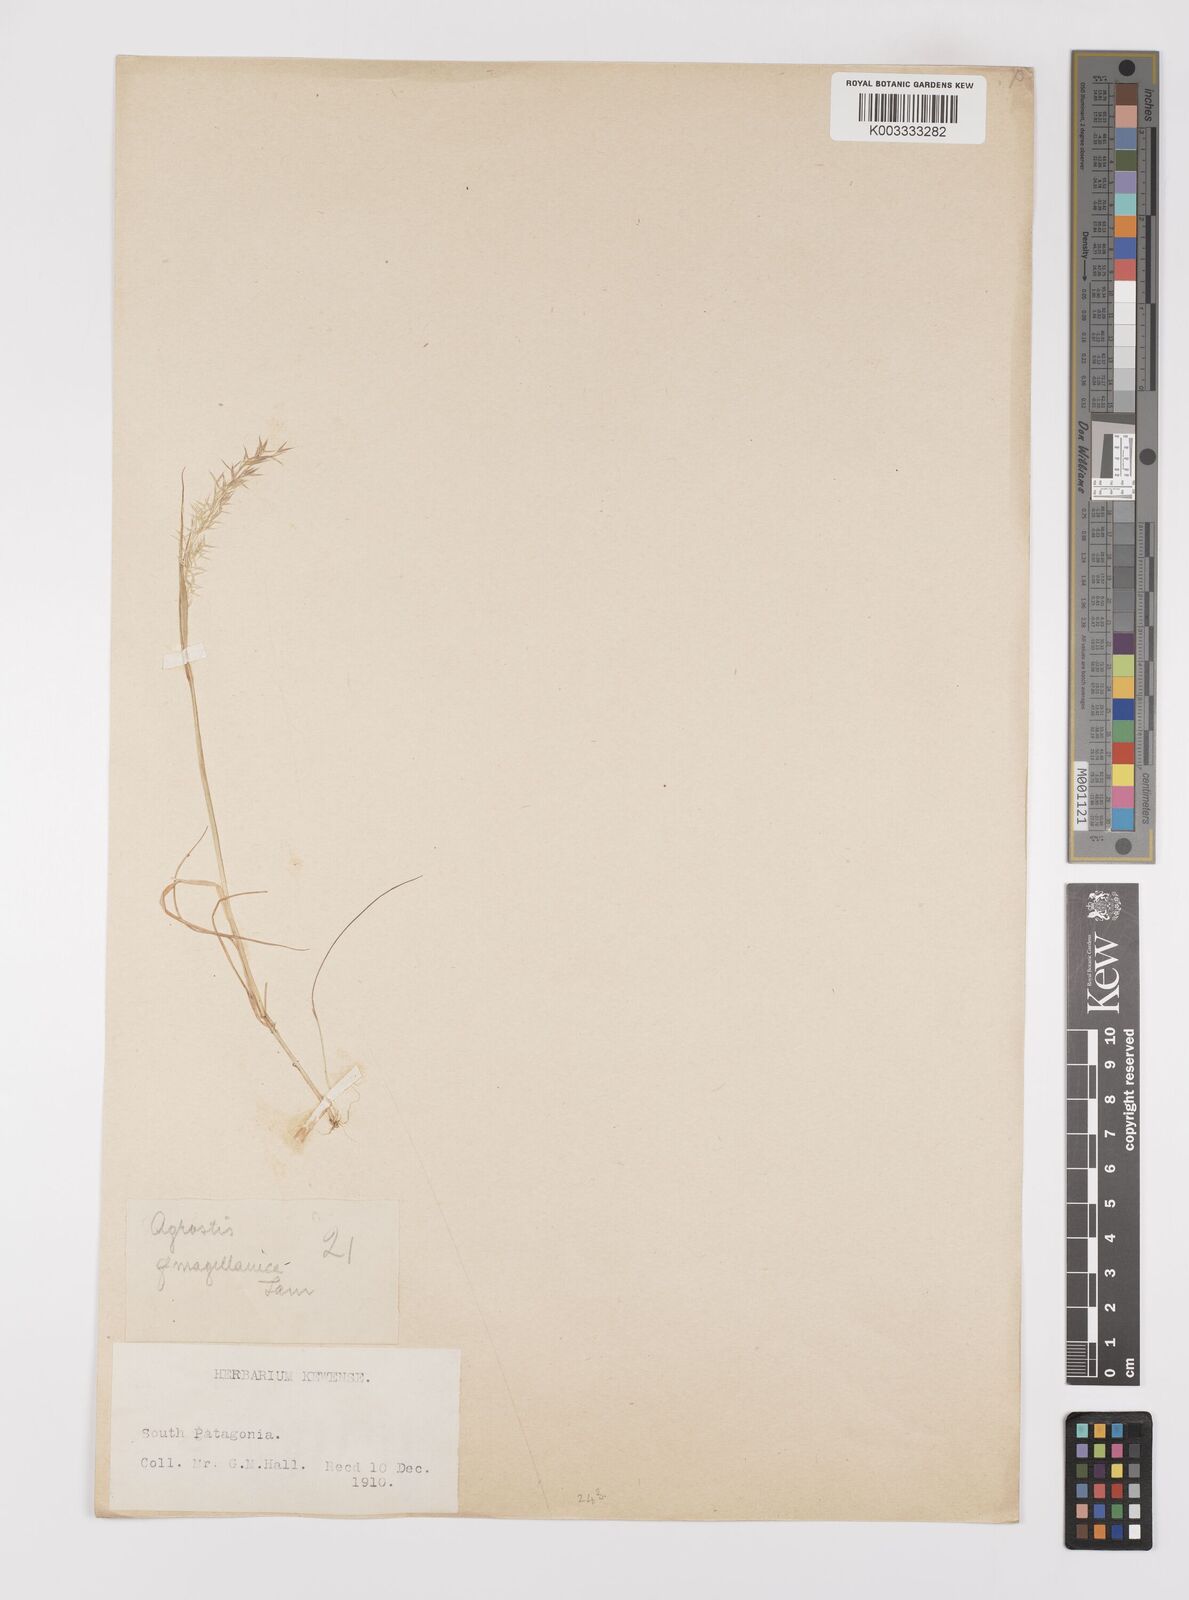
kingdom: Plantae
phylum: Tracheophyta
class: Liliopsida
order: Poales
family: Poaceae
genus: Polypogon
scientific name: Polypogon magellanicus
